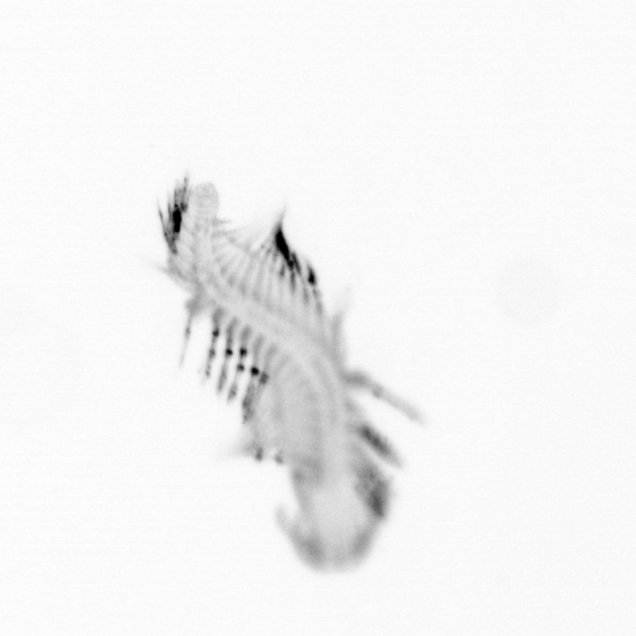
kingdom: Animalia
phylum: Annelida
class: Polychaeta
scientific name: Polychaeta
